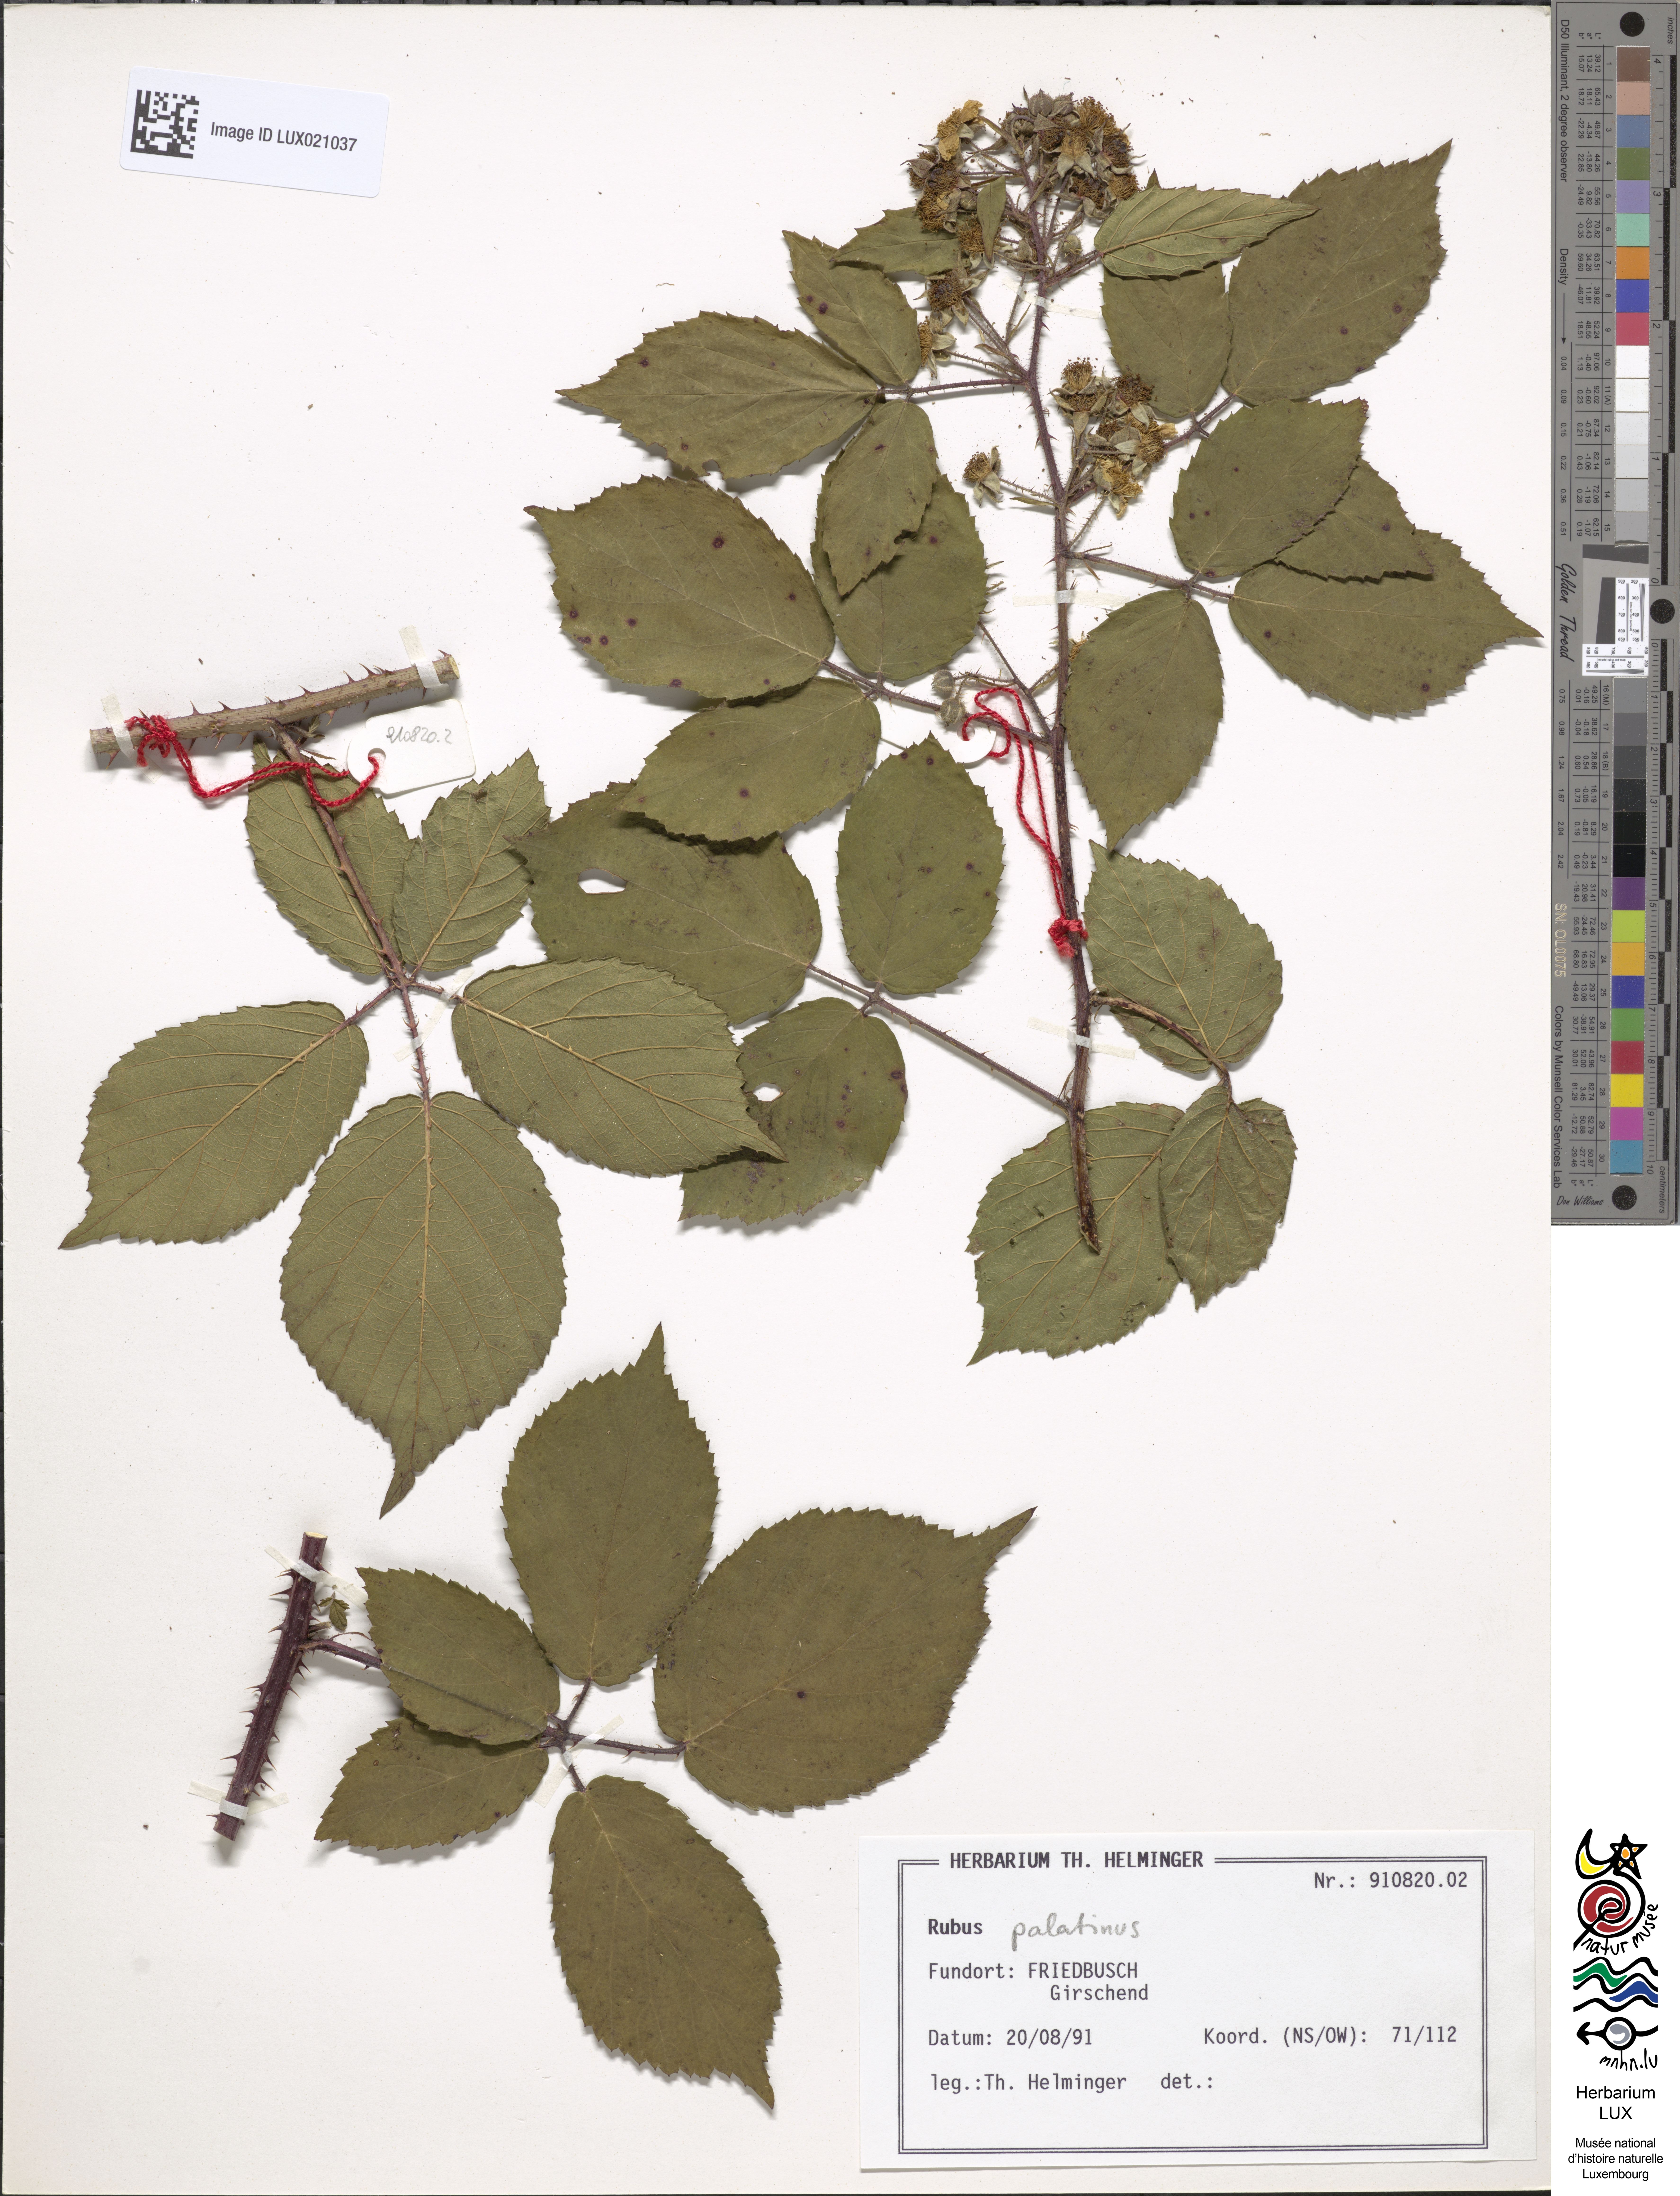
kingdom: Plantae
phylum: Tracheophyta
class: Magnoliopsida
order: Rosales
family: Rosaceae
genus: Rubus
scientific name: Rubus macrodontus
